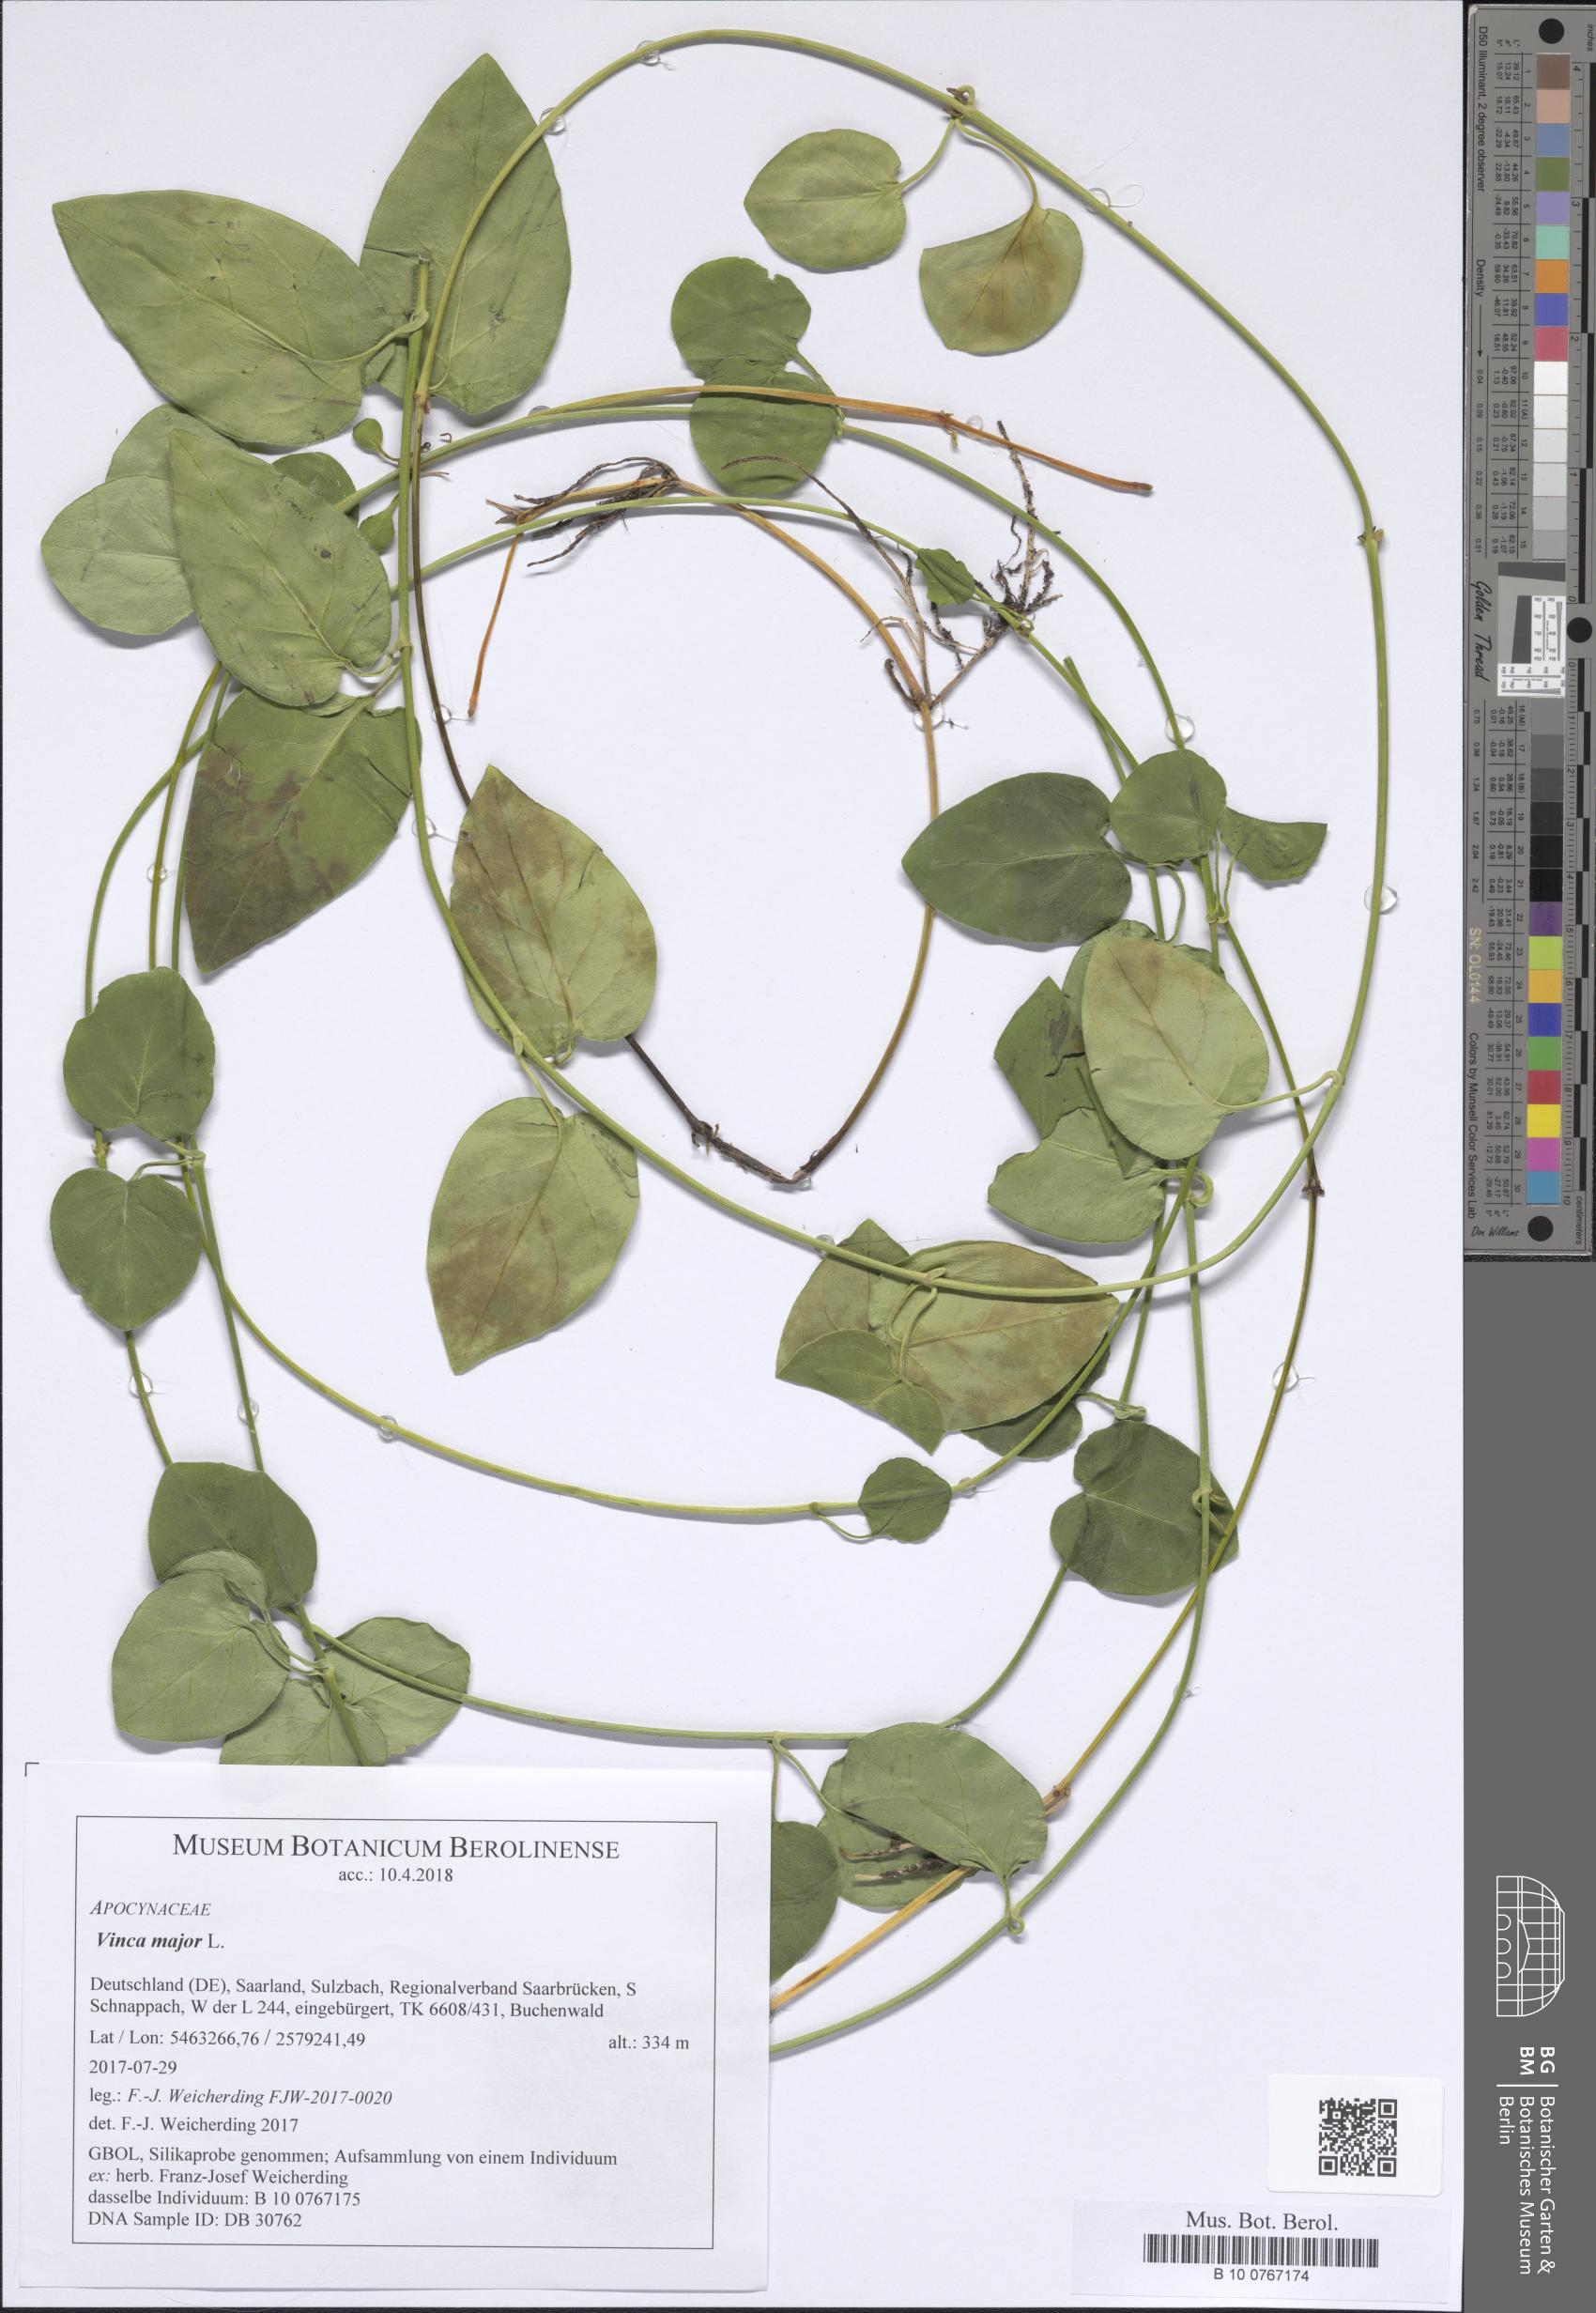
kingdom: Plantae
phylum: Tracheophyta
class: Magnoliopsida
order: Gentianales
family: Apocynaceae
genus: Vinca
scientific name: Vinca major
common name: Greater periwinkle
